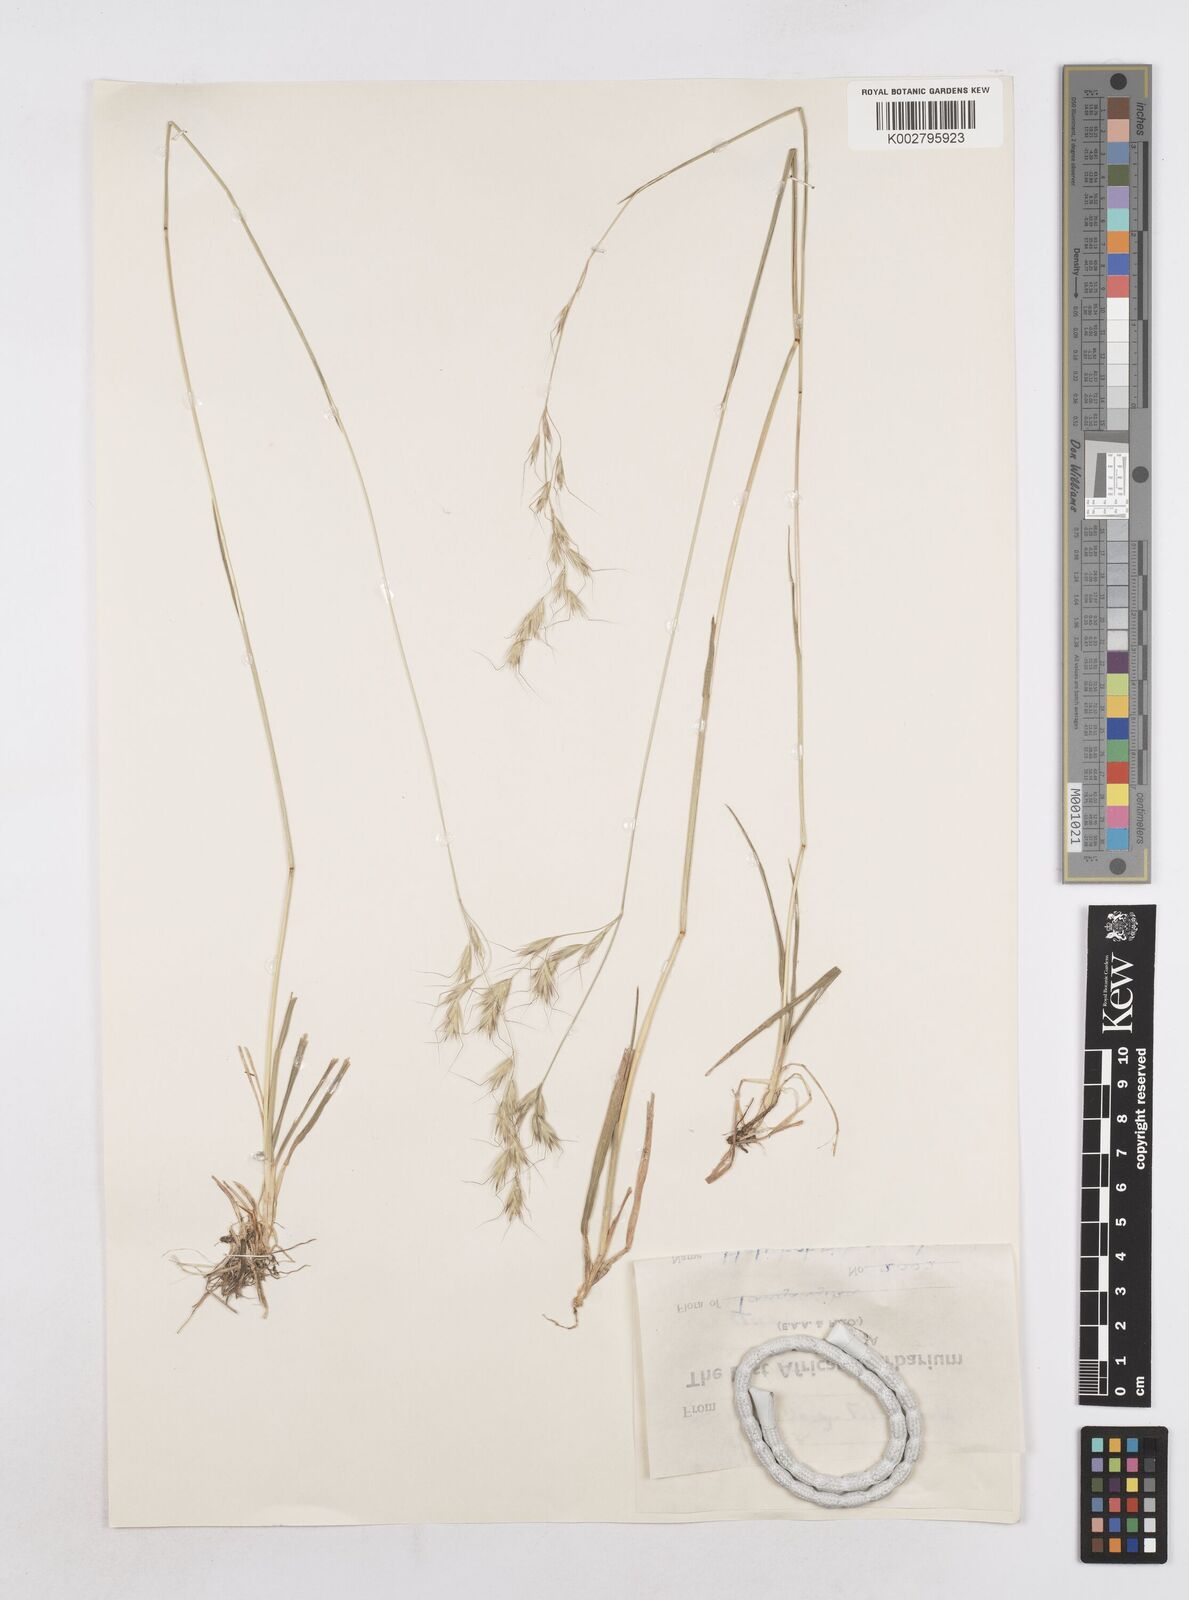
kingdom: Plantae
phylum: Tracheophyta
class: Liliopsida
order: Poales
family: Poaceae
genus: Trisetopsis
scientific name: Trisetopsis elongata
